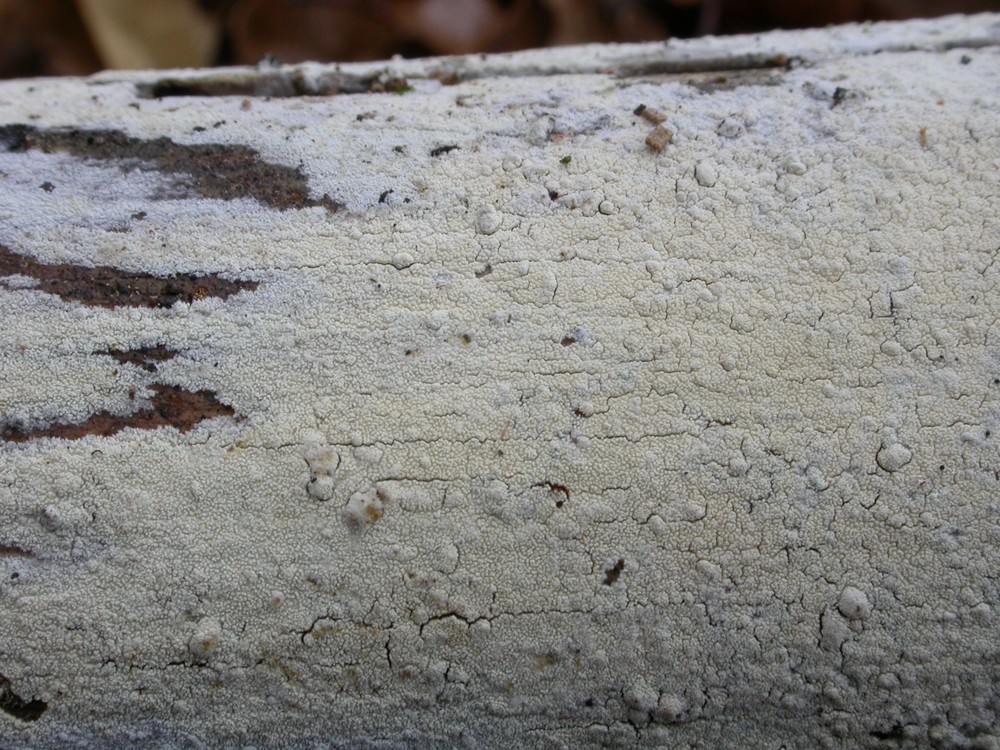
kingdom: Fungi
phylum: Basidiomycota
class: Agaricomycetes
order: Hymenochaetales
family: Schizoporaceae
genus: Xylodon
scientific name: Xylodon nesporii
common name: fintandet tandsvamp
